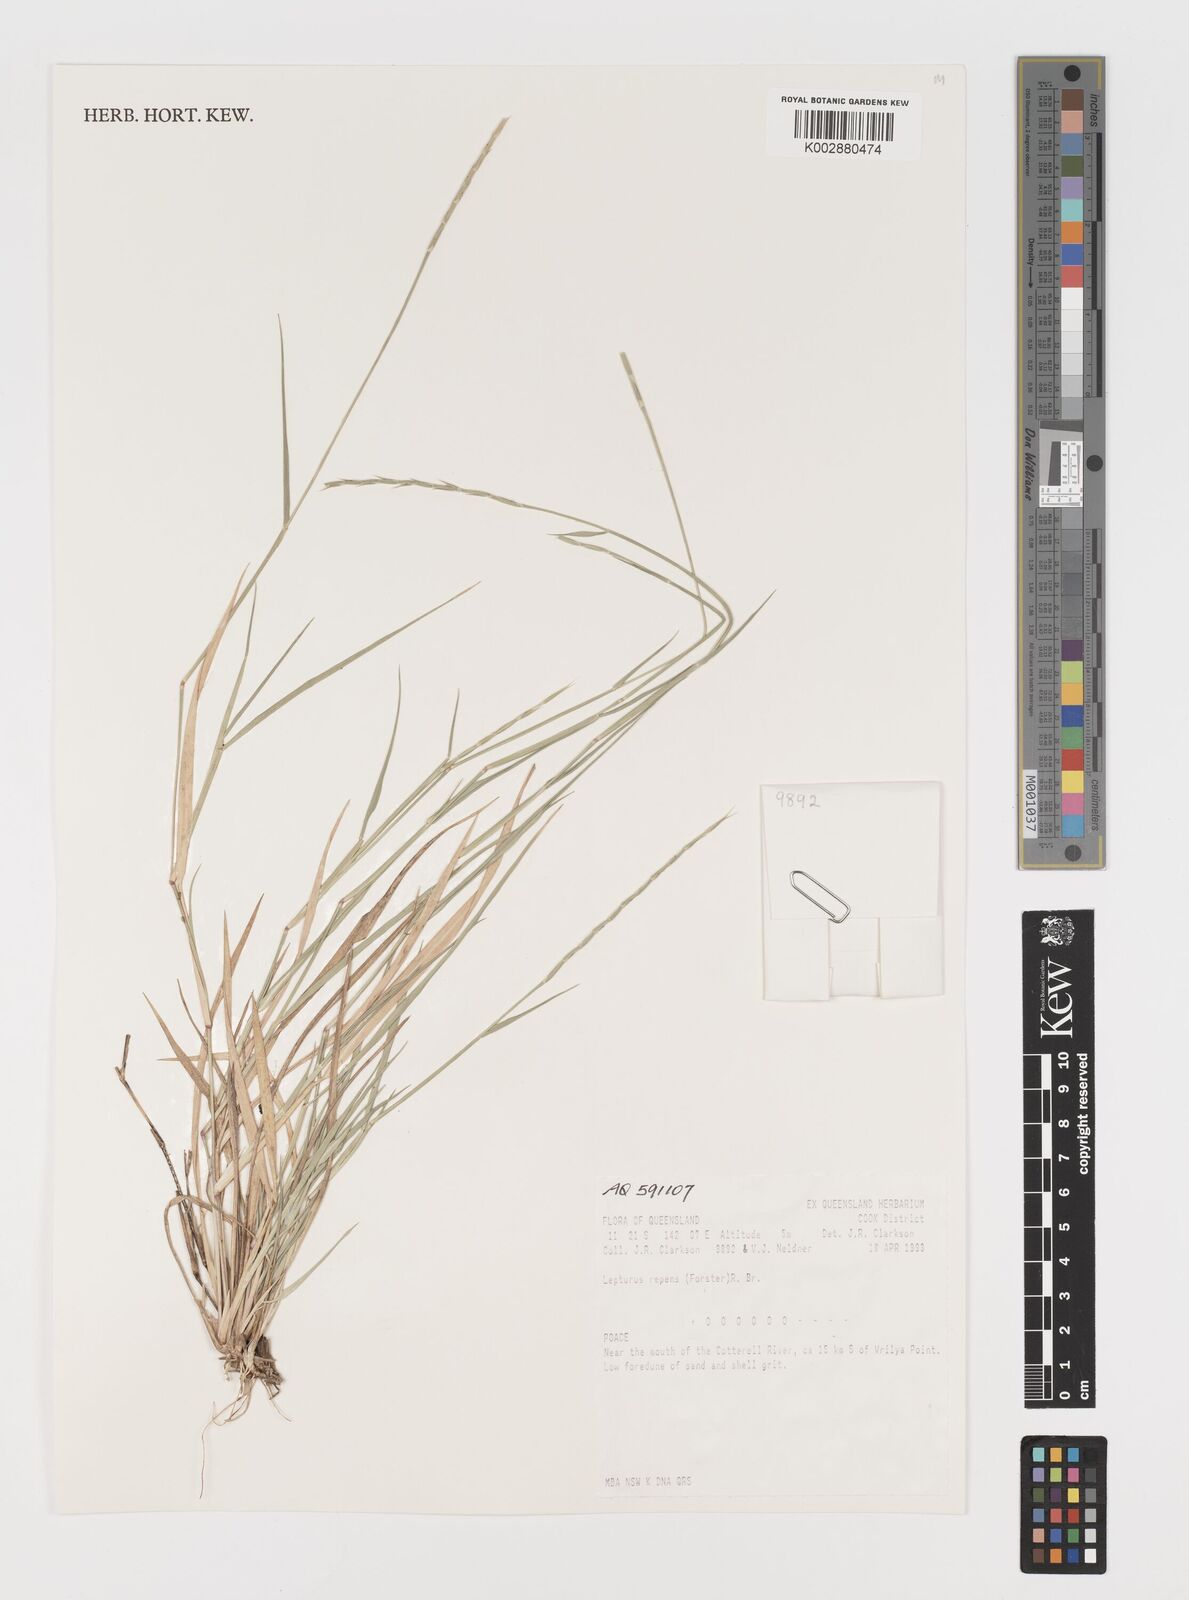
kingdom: Plantae
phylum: Tracheophyta
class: Liliopsida
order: Poales
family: Poaceae
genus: Lepturus
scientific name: Lepturus repens
